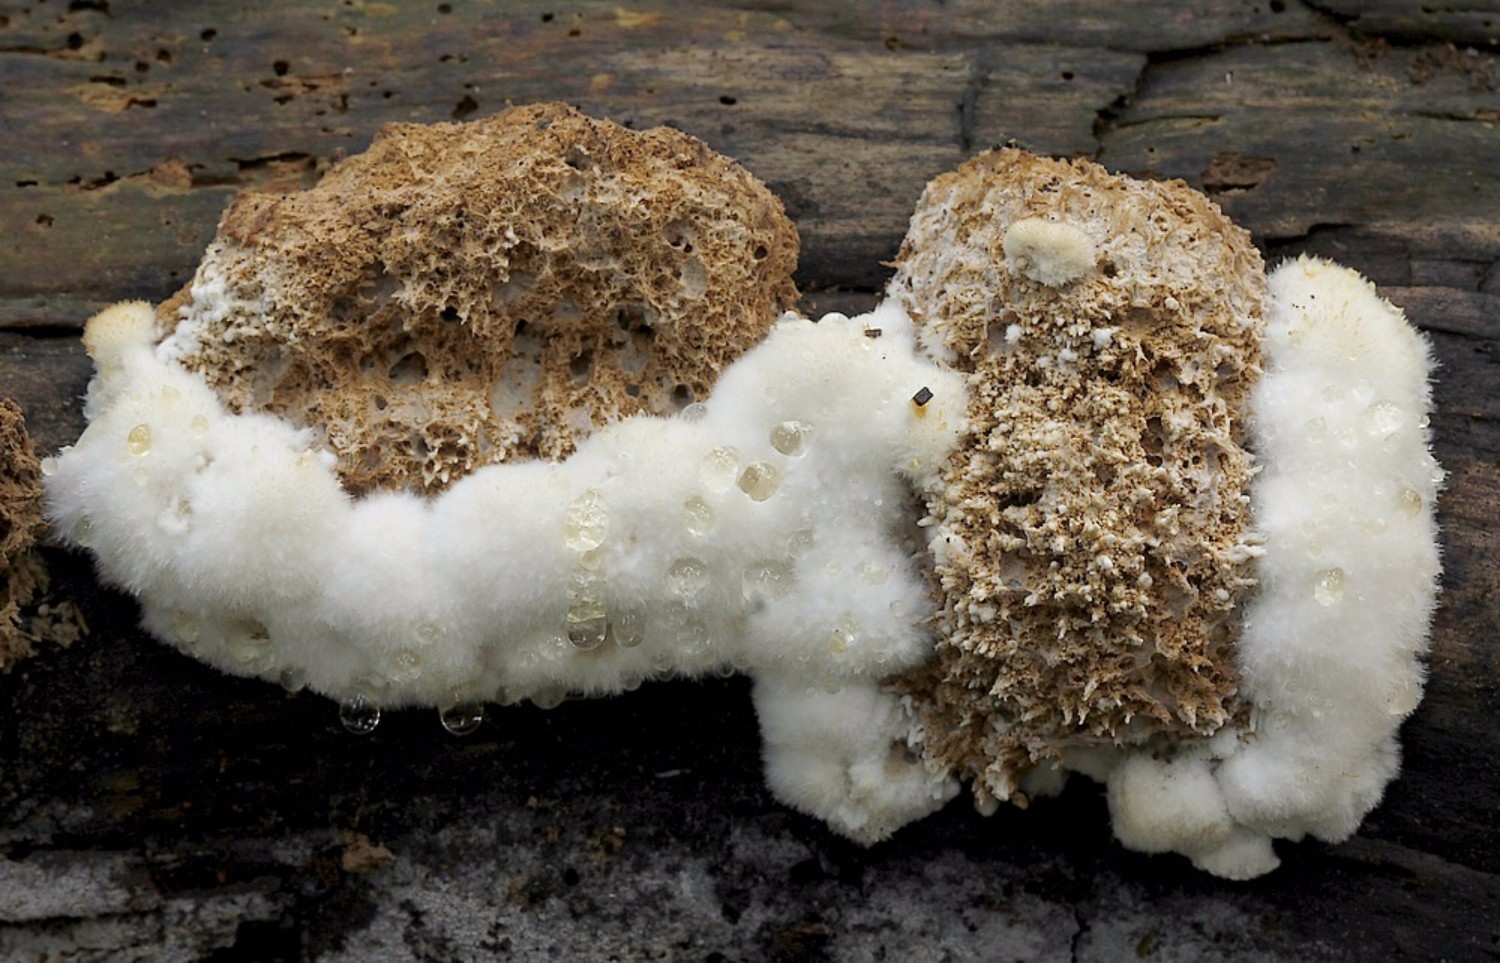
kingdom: Fungi
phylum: Basidiomycota
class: Agaricomycetes
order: Polyporales
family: Dacryobolaceae
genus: Postia
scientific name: Postia ptychogaster
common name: støvende kødporesvamp
